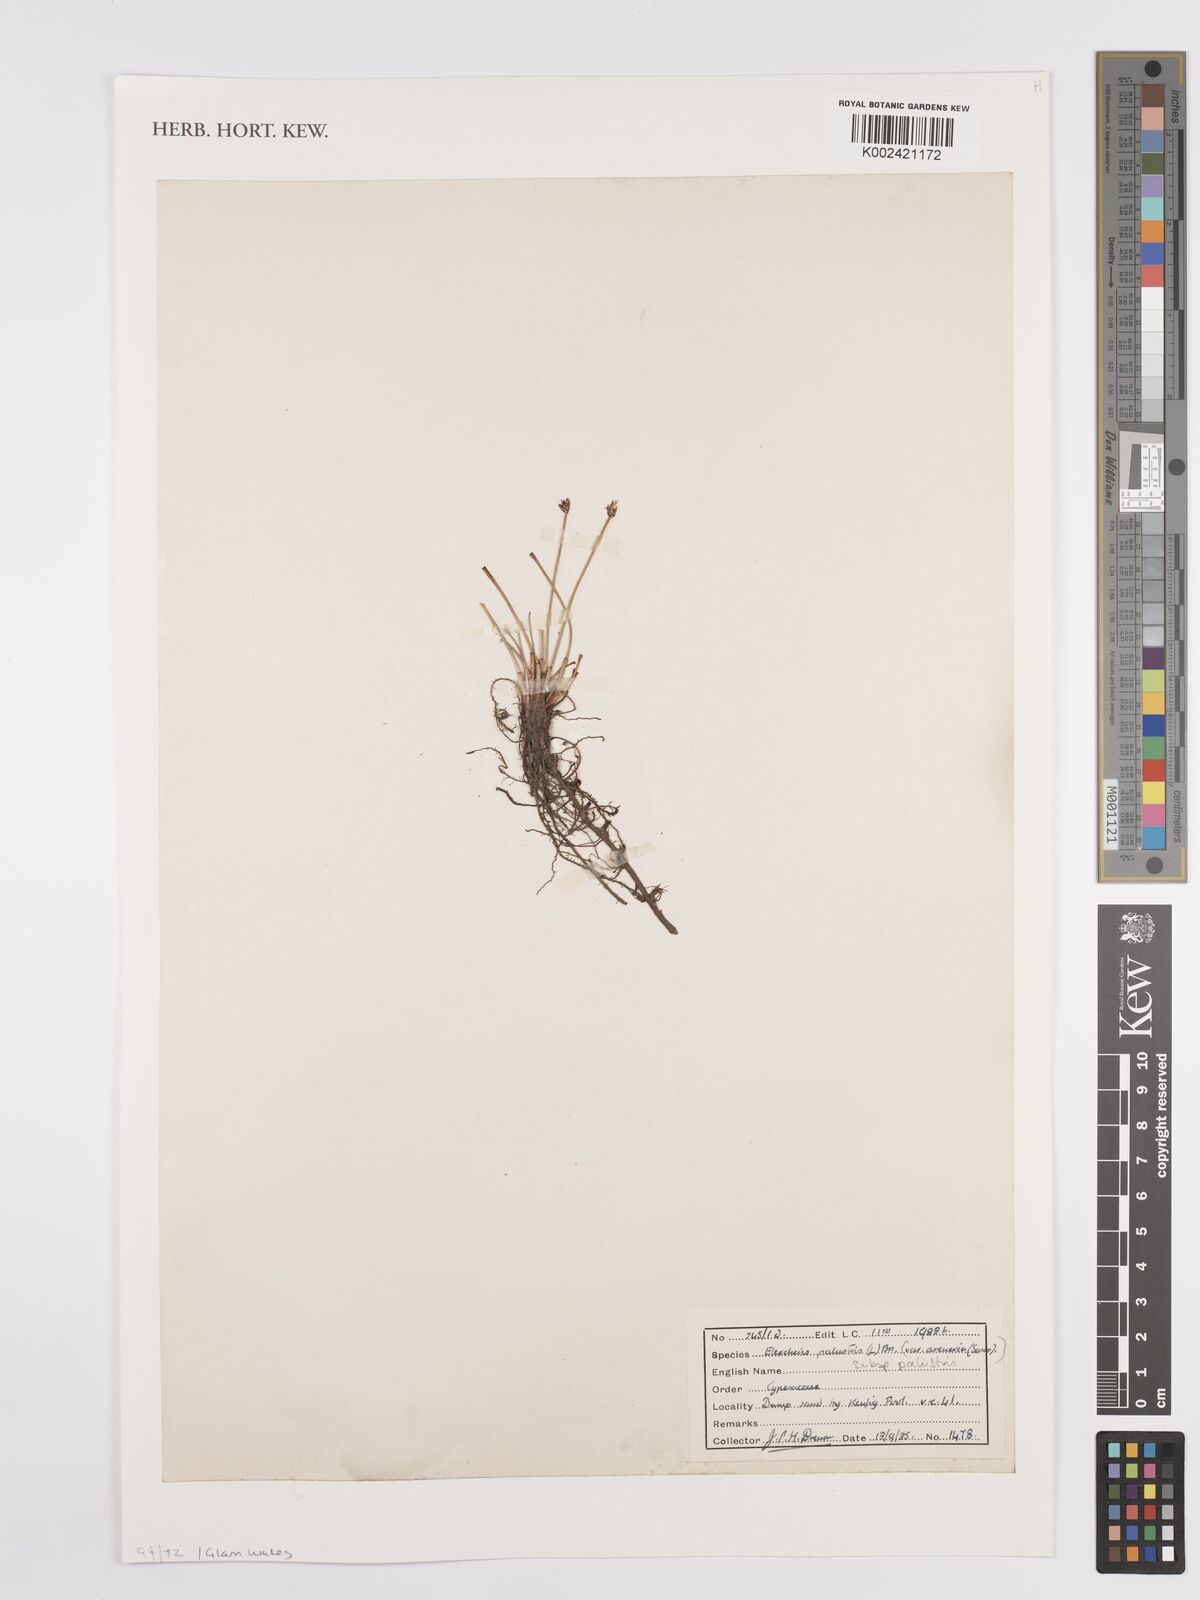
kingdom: Plantae
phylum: Tracheophyta
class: Liliopsida
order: Poales
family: Cyperaceae
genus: Eleocharis
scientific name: Eleocharis palustris
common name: Common spike-rush
